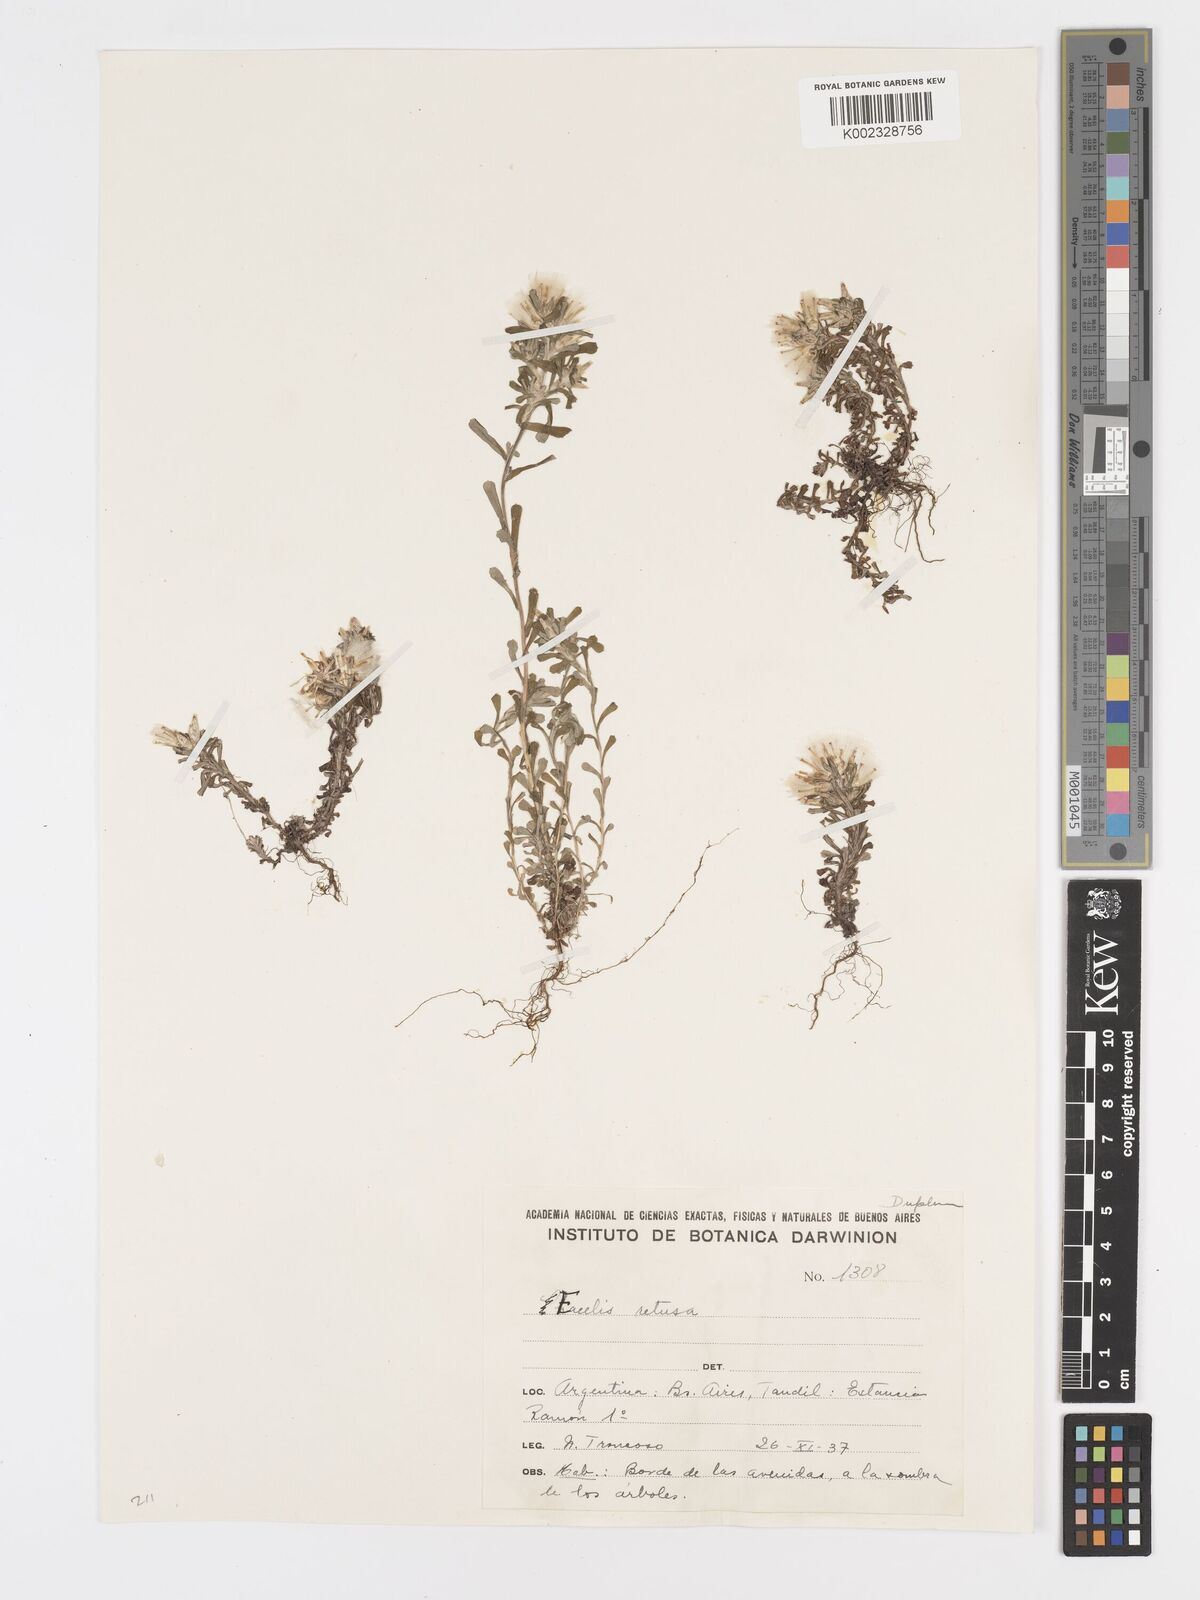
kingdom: Plantae
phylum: Tracheophyta
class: Magnoliopsida
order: Asterales
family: Asteraceae
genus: Facelis
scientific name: Facelis retusa
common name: Annual trampweed
